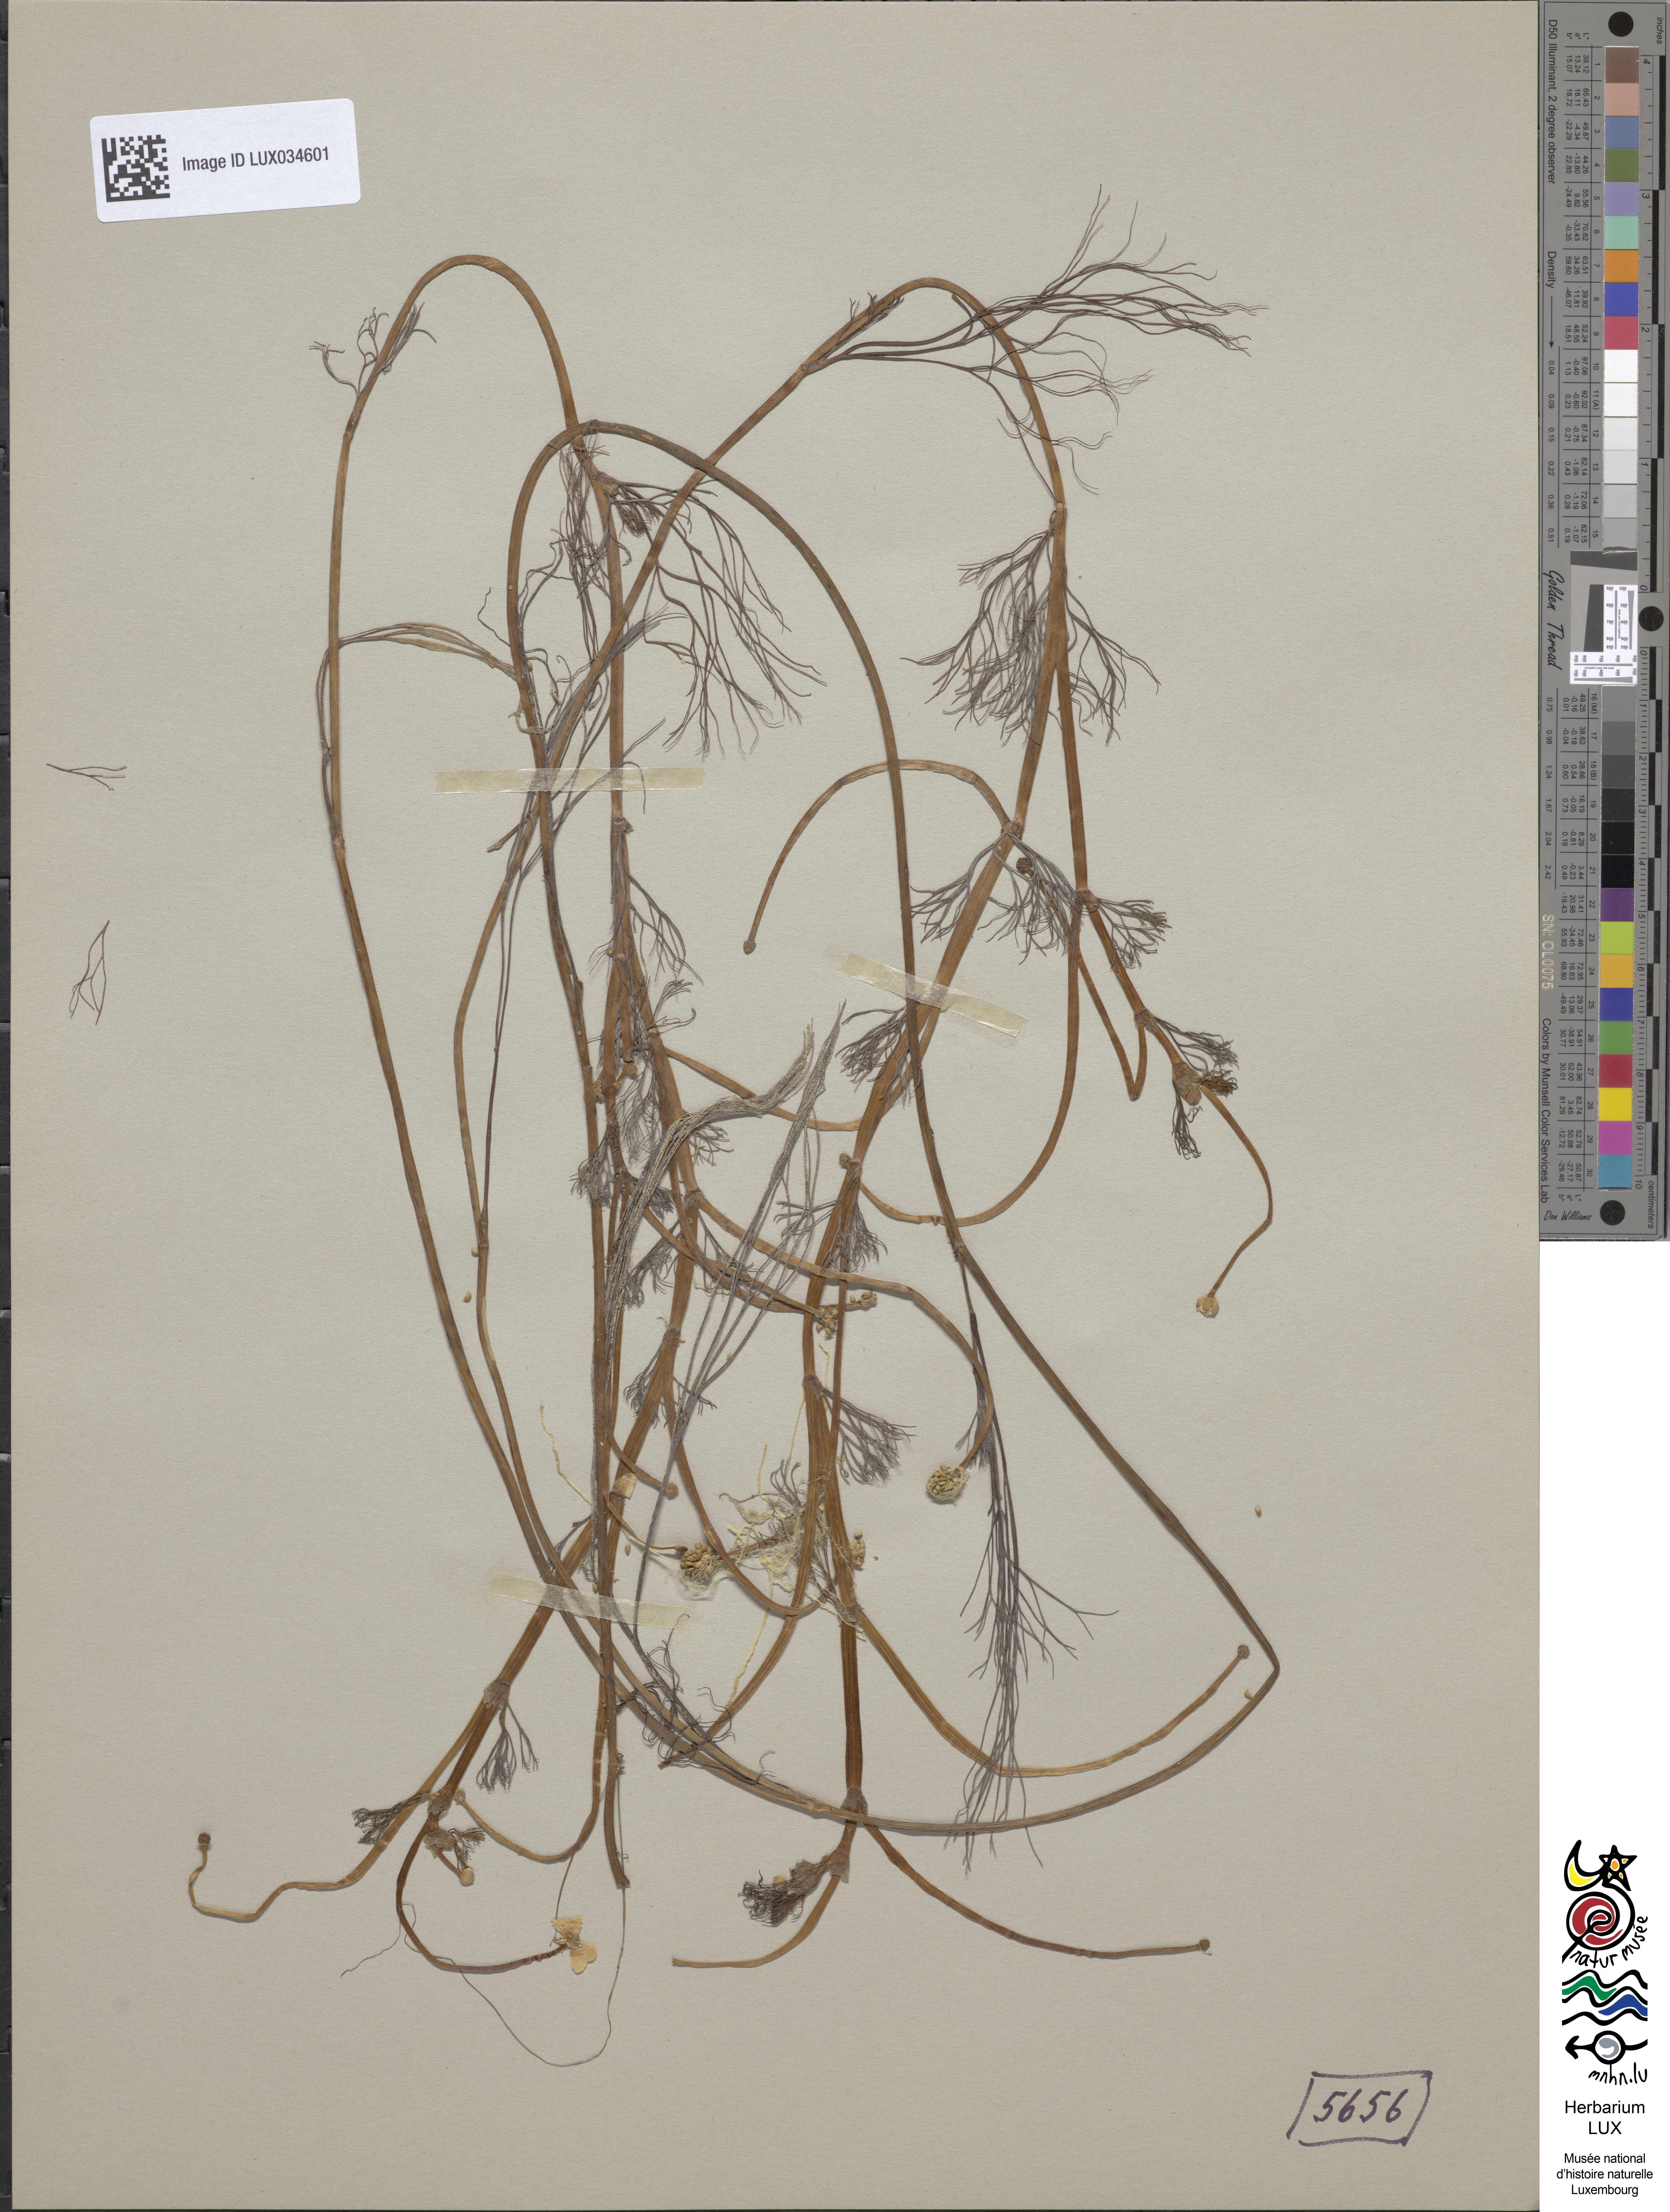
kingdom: Plantae
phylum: Tracheophyta
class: Magnoliopsida
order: Ranunculales
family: Ranunculaceae
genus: Ranunculus
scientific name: Ranunculus peltatus
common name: Pond water-crowfoot
